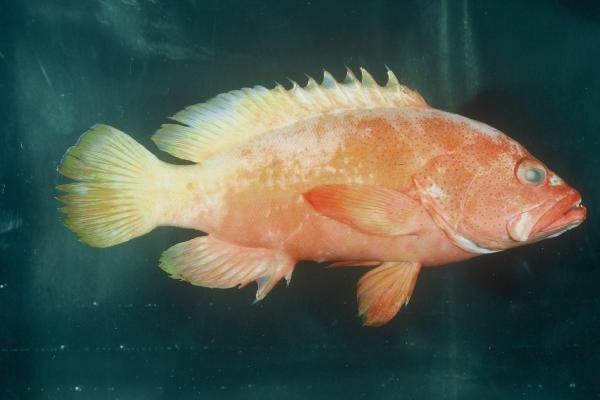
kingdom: Animalia
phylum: Chordata
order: Perciformes
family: Serranidae
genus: Cephalopholis
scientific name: Cephalopholis aurantia
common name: Golden hind
